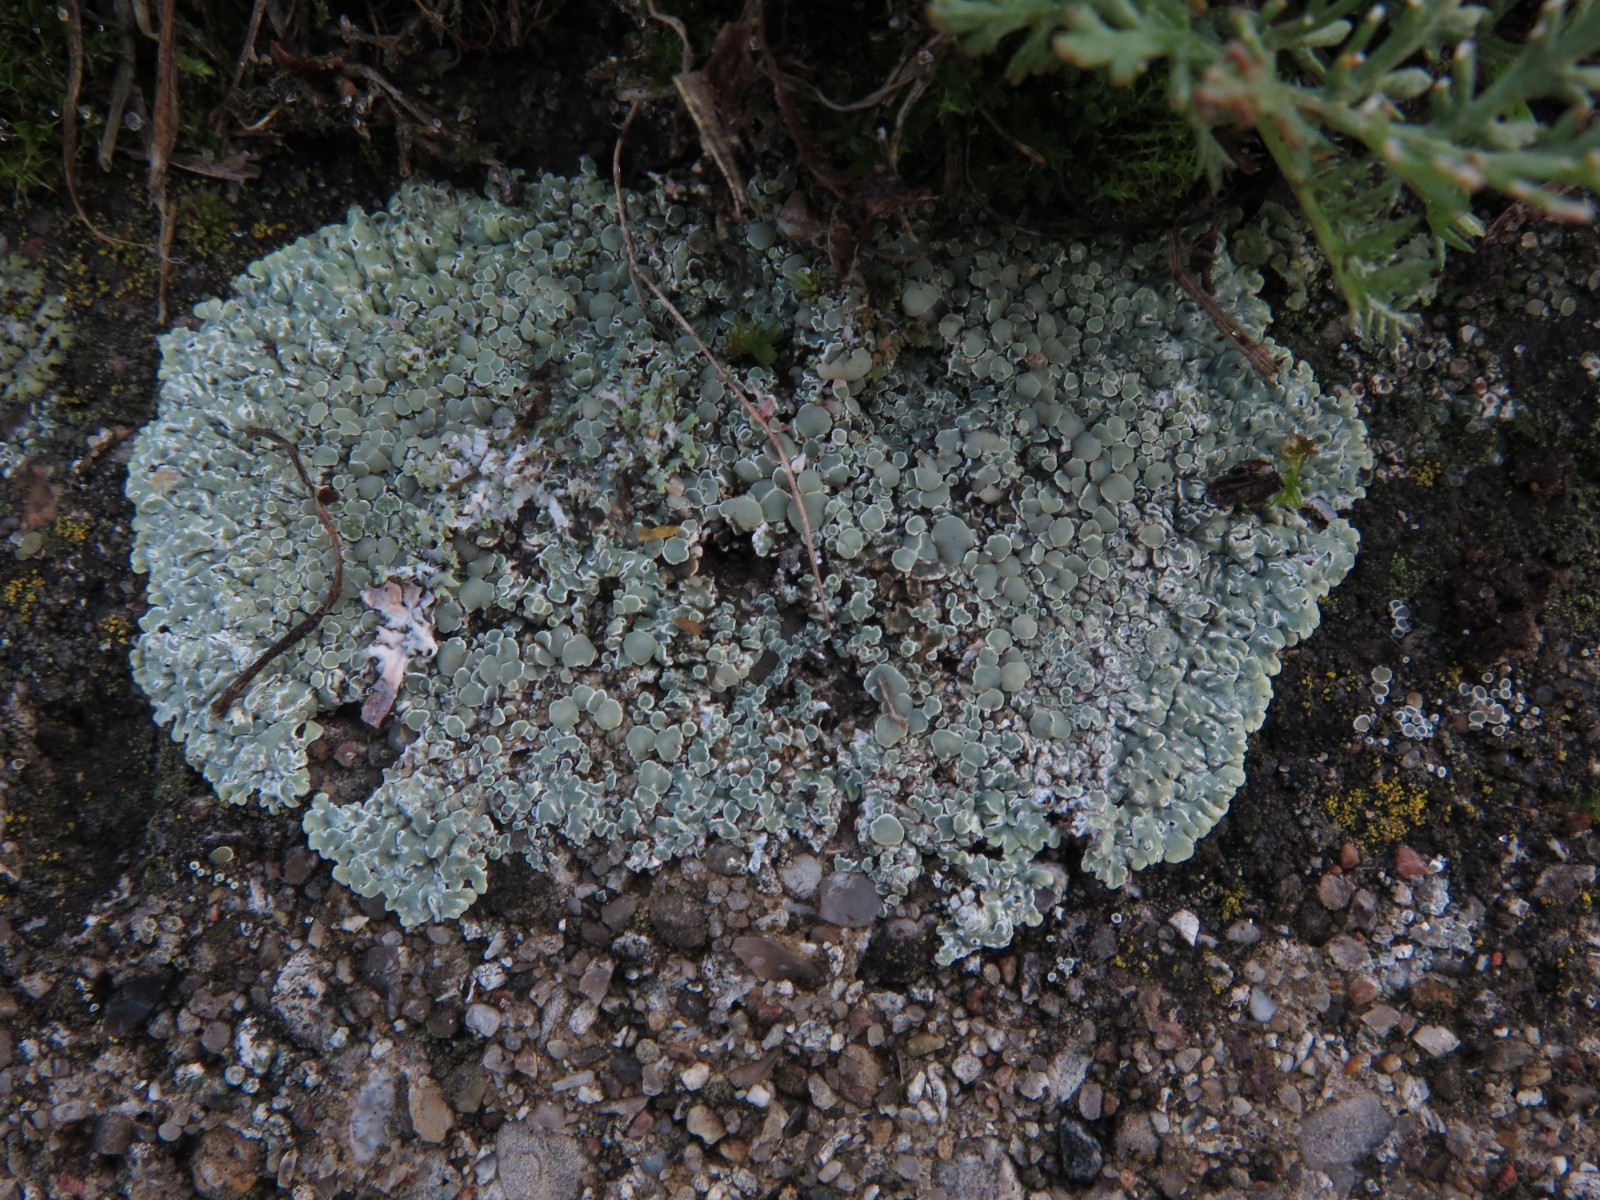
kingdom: Fungi
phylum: Ascomycota
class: Lecanoromycetes
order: Lecanorales
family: Lecanoraceae
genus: Protoparmeliopsis
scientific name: Protoparmeliopsis muralis
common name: randfliget kantskivelav
